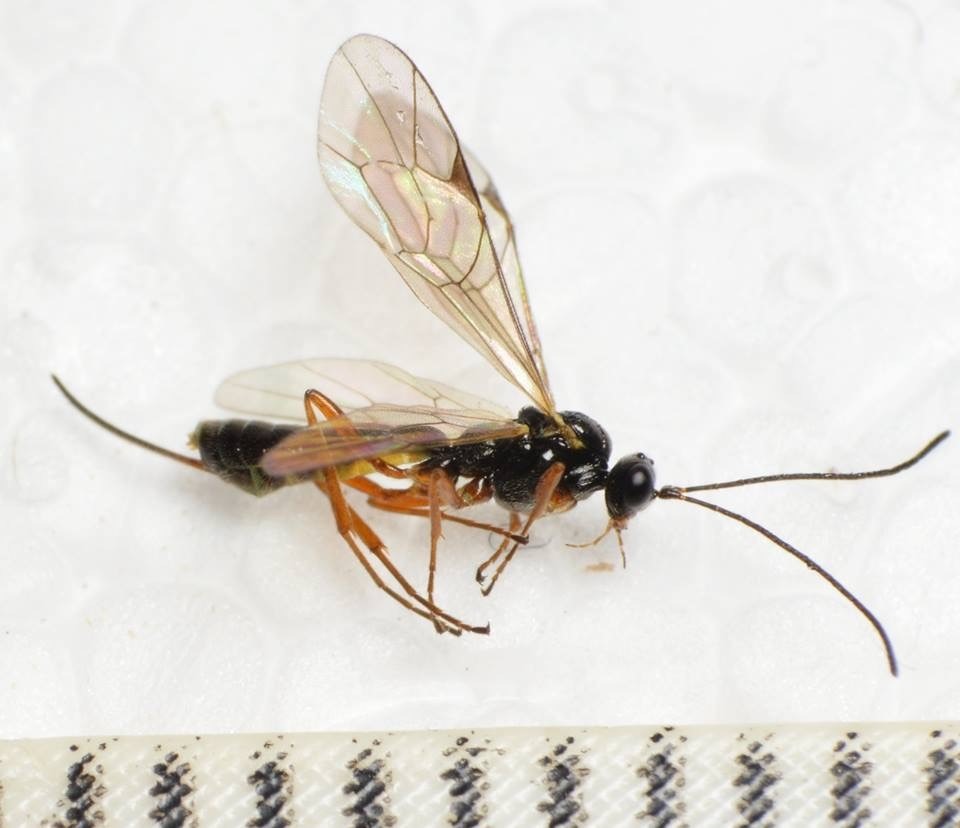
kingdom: Animalia
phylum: Arthropoda
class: Insecta
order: Hymenoptera
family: Ichneumonidae
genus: Allomacrus
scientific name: Allomacrus arcticus
